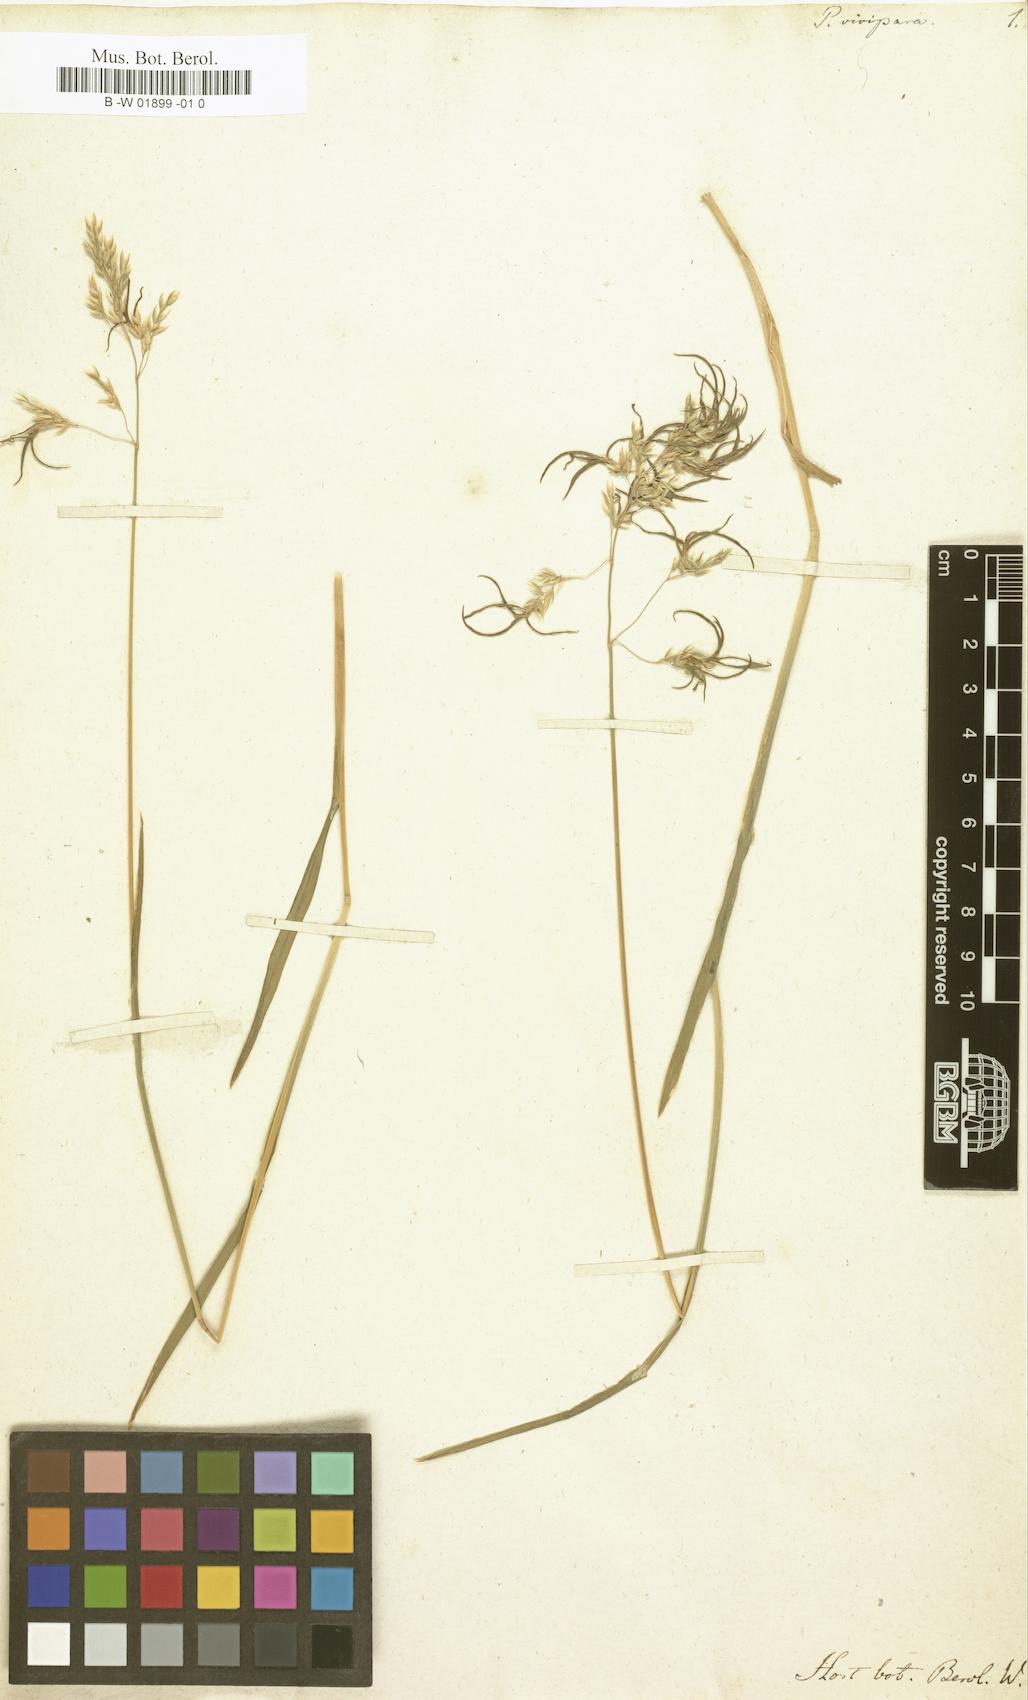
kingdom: Plantae
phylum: Tracheophyta
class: Liliopsida
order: Poales
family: Poaceae
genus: Poa
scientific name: Poa alpina
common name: Alpine bluegrass
